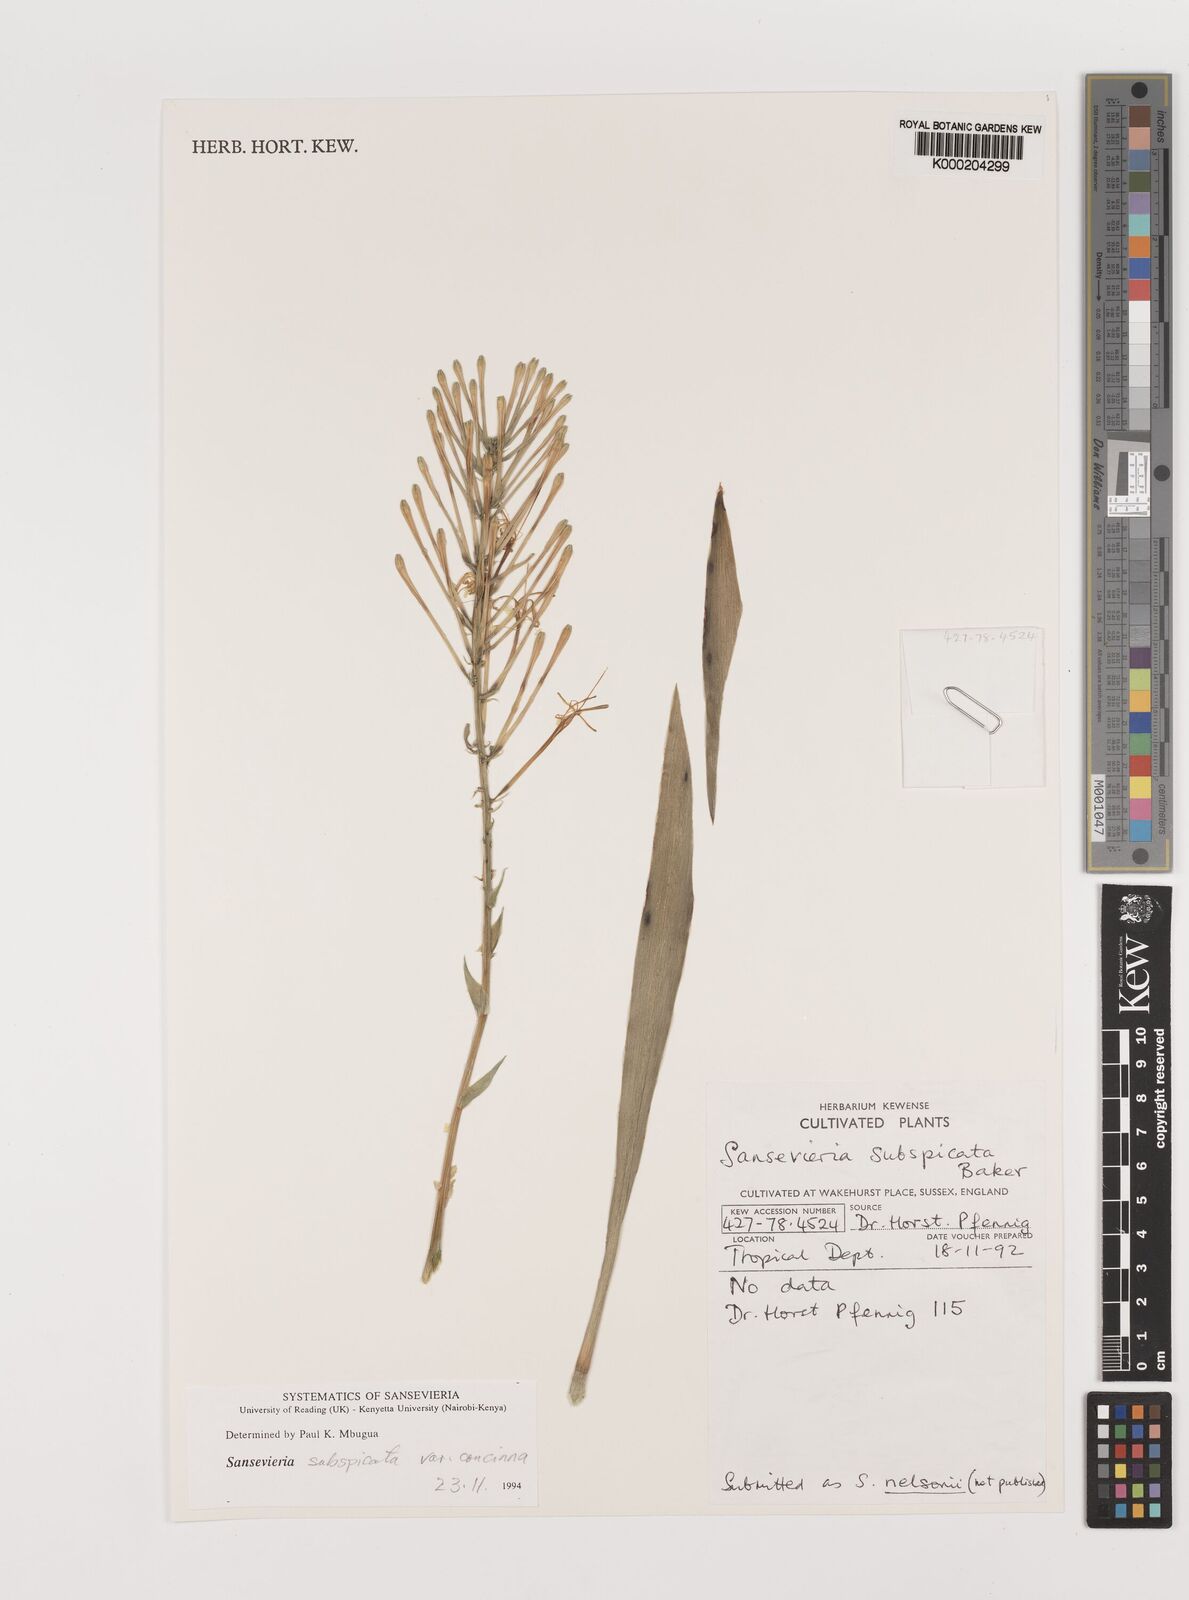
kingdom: Plantae
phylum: Tracheophyta
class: Liliopsida
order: Asparagales
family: Asparagaceae
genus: Dracaena
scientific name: Dracaena spathulata
